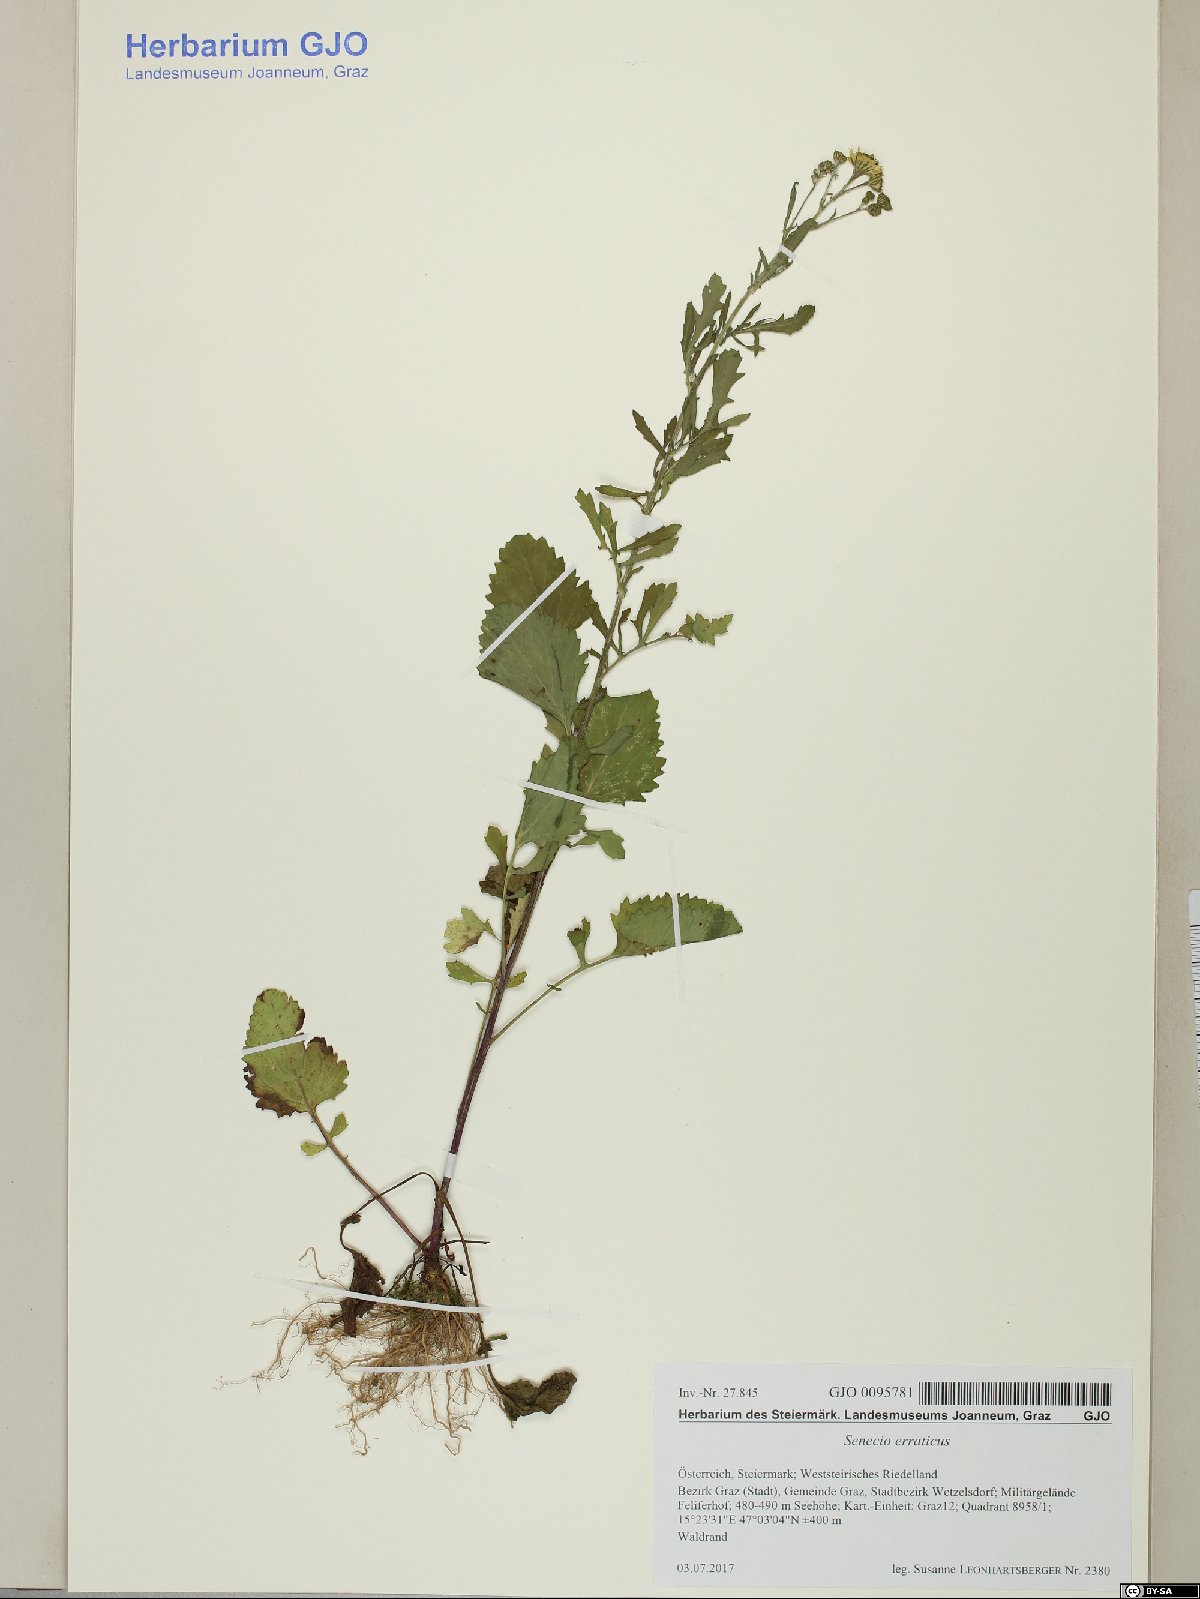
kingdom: Plantae
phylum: Tracheophyta
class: Magnoliopsida
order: Asterales
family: Asteraceae
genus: Jacobaea
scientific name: Jacobaea erratica
